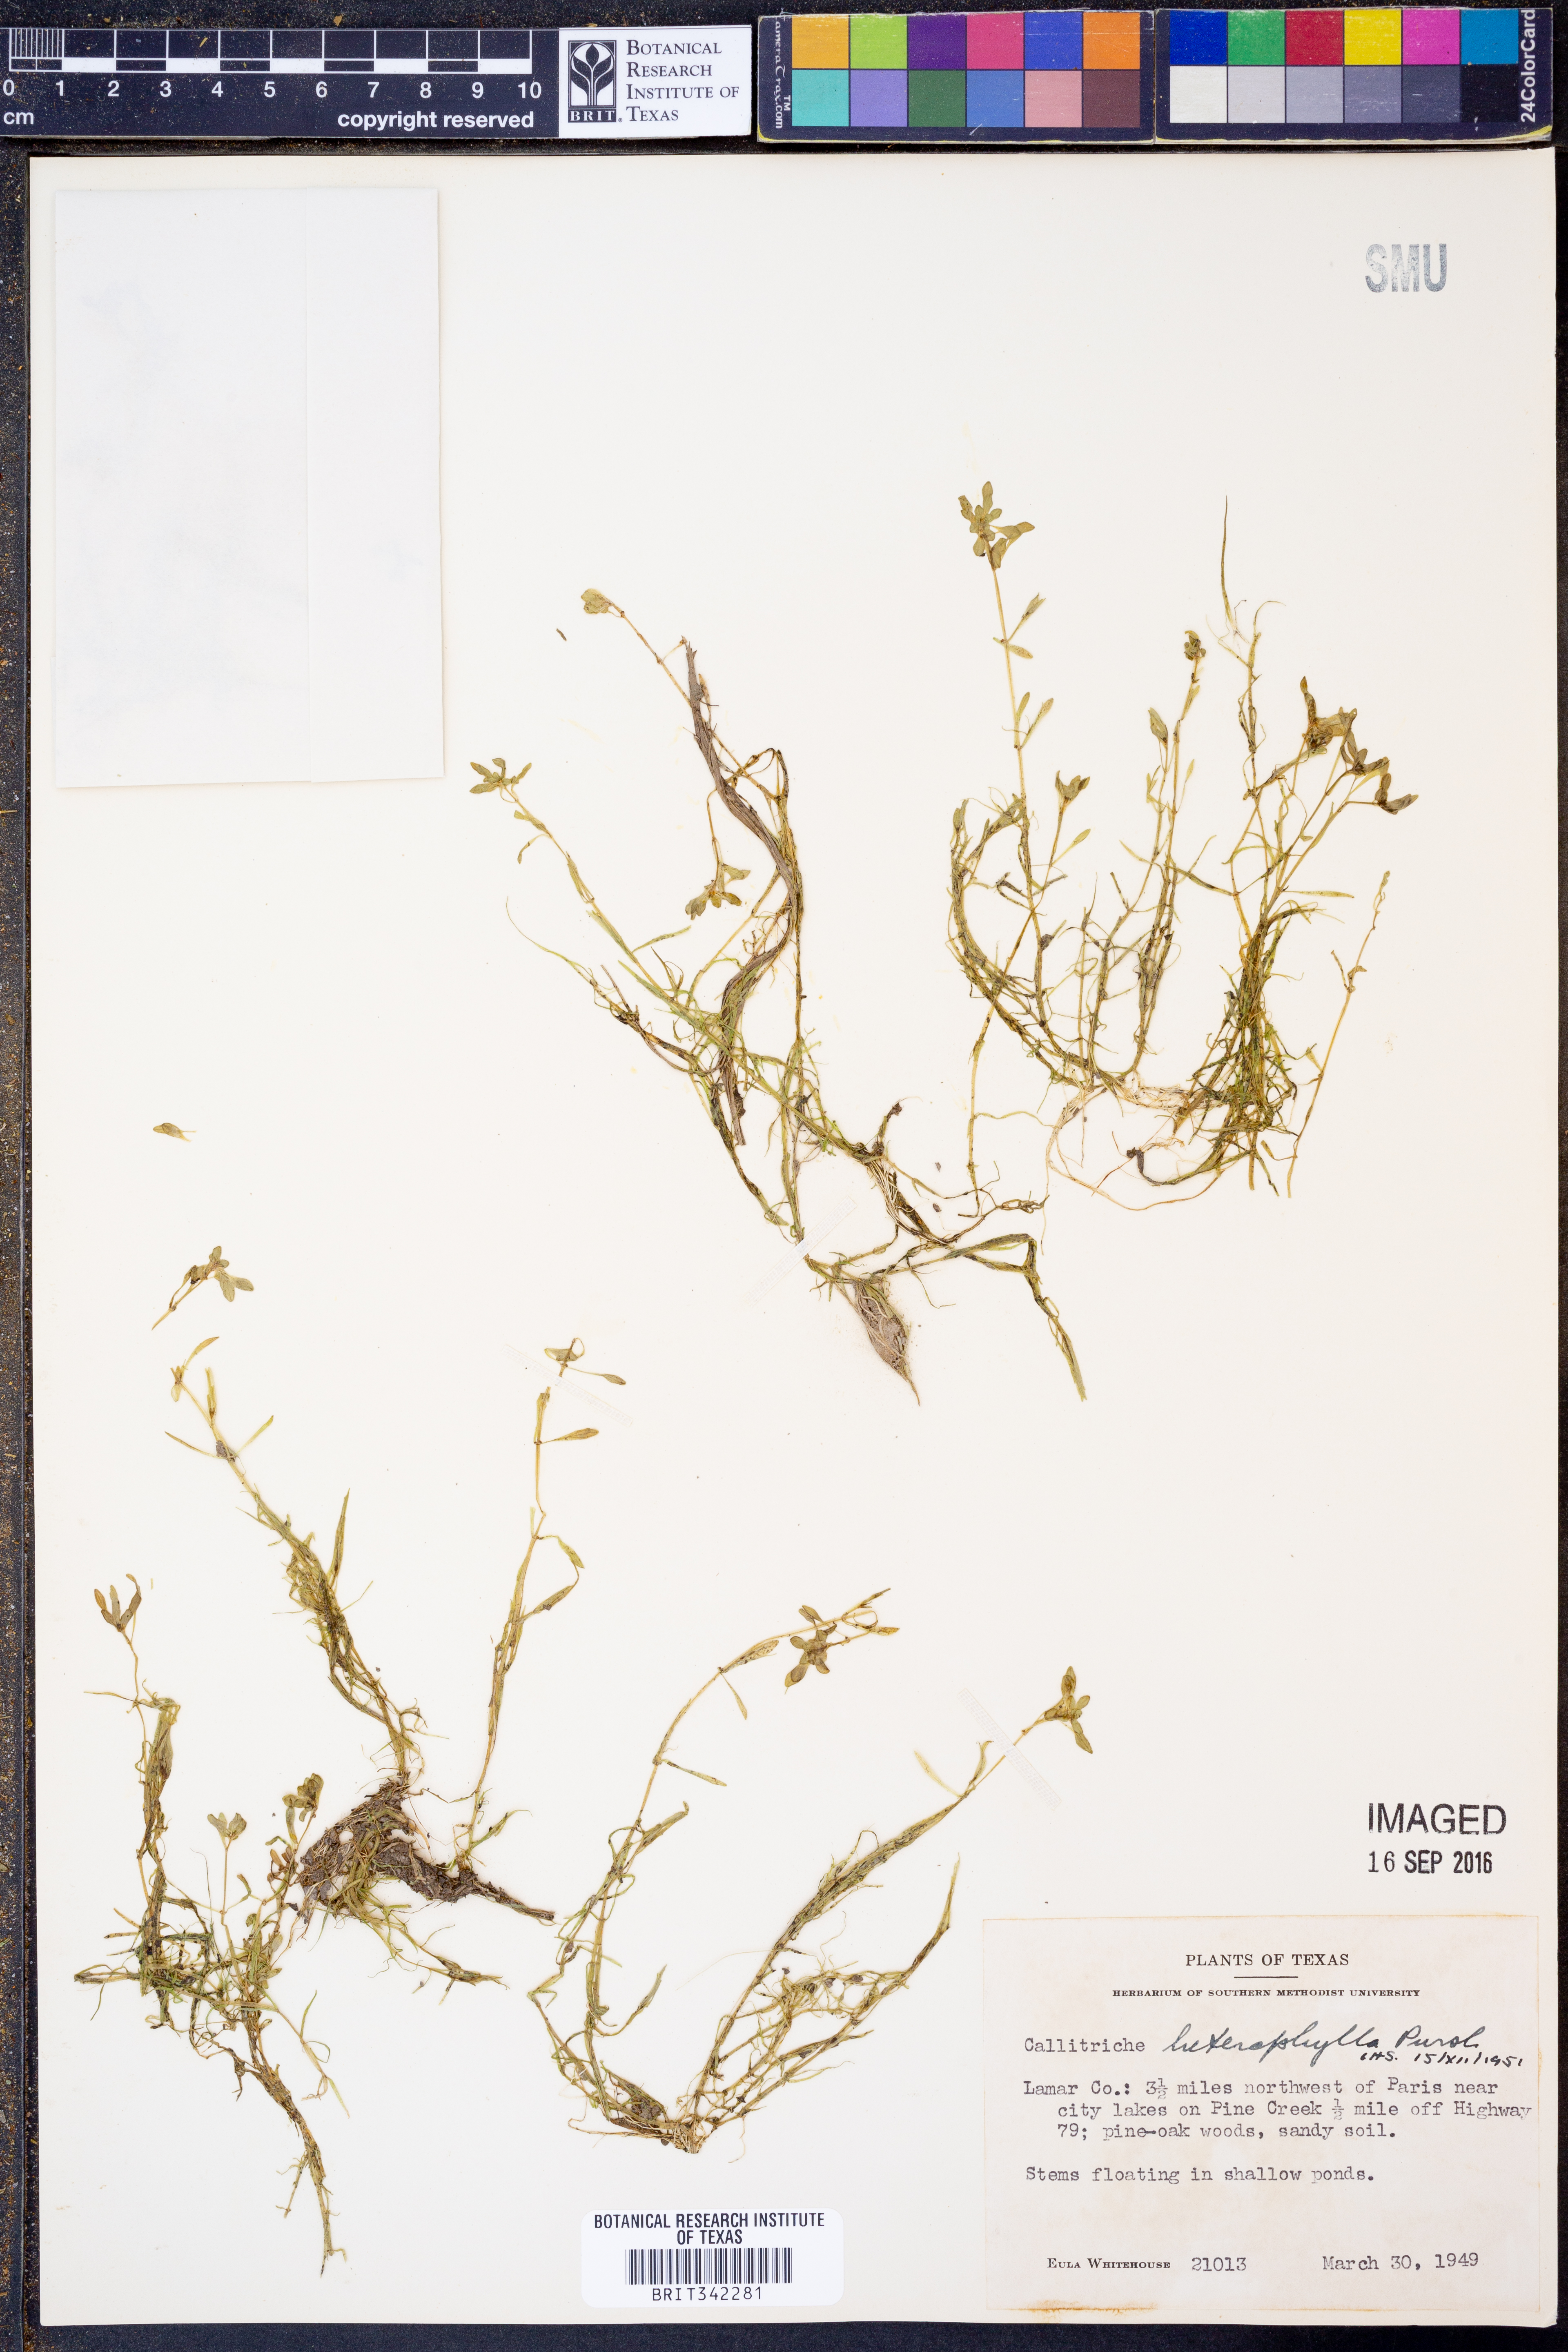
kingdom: Plantae
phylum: Tracheophyta
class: Magnoliopsida
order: Lamiales
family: Plantaginaceae
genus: Callitriche
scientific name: Callitriche heterophylla
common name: Two-headed water-starwort
